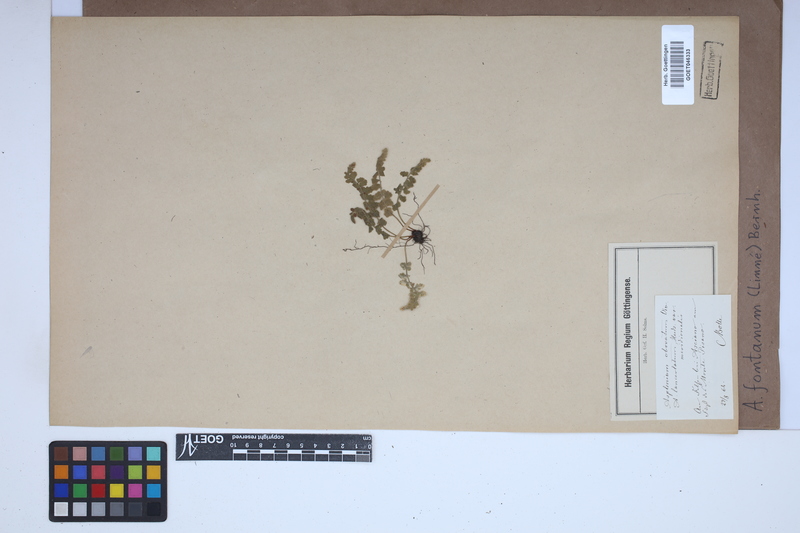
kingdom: Plantae
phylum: Tracheophyta
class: Polypodiopsida
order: Polypodiales
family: Aspleniaceae
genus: Asplenium
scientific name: Asplenium fontanum
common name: Fountain spleenwort
